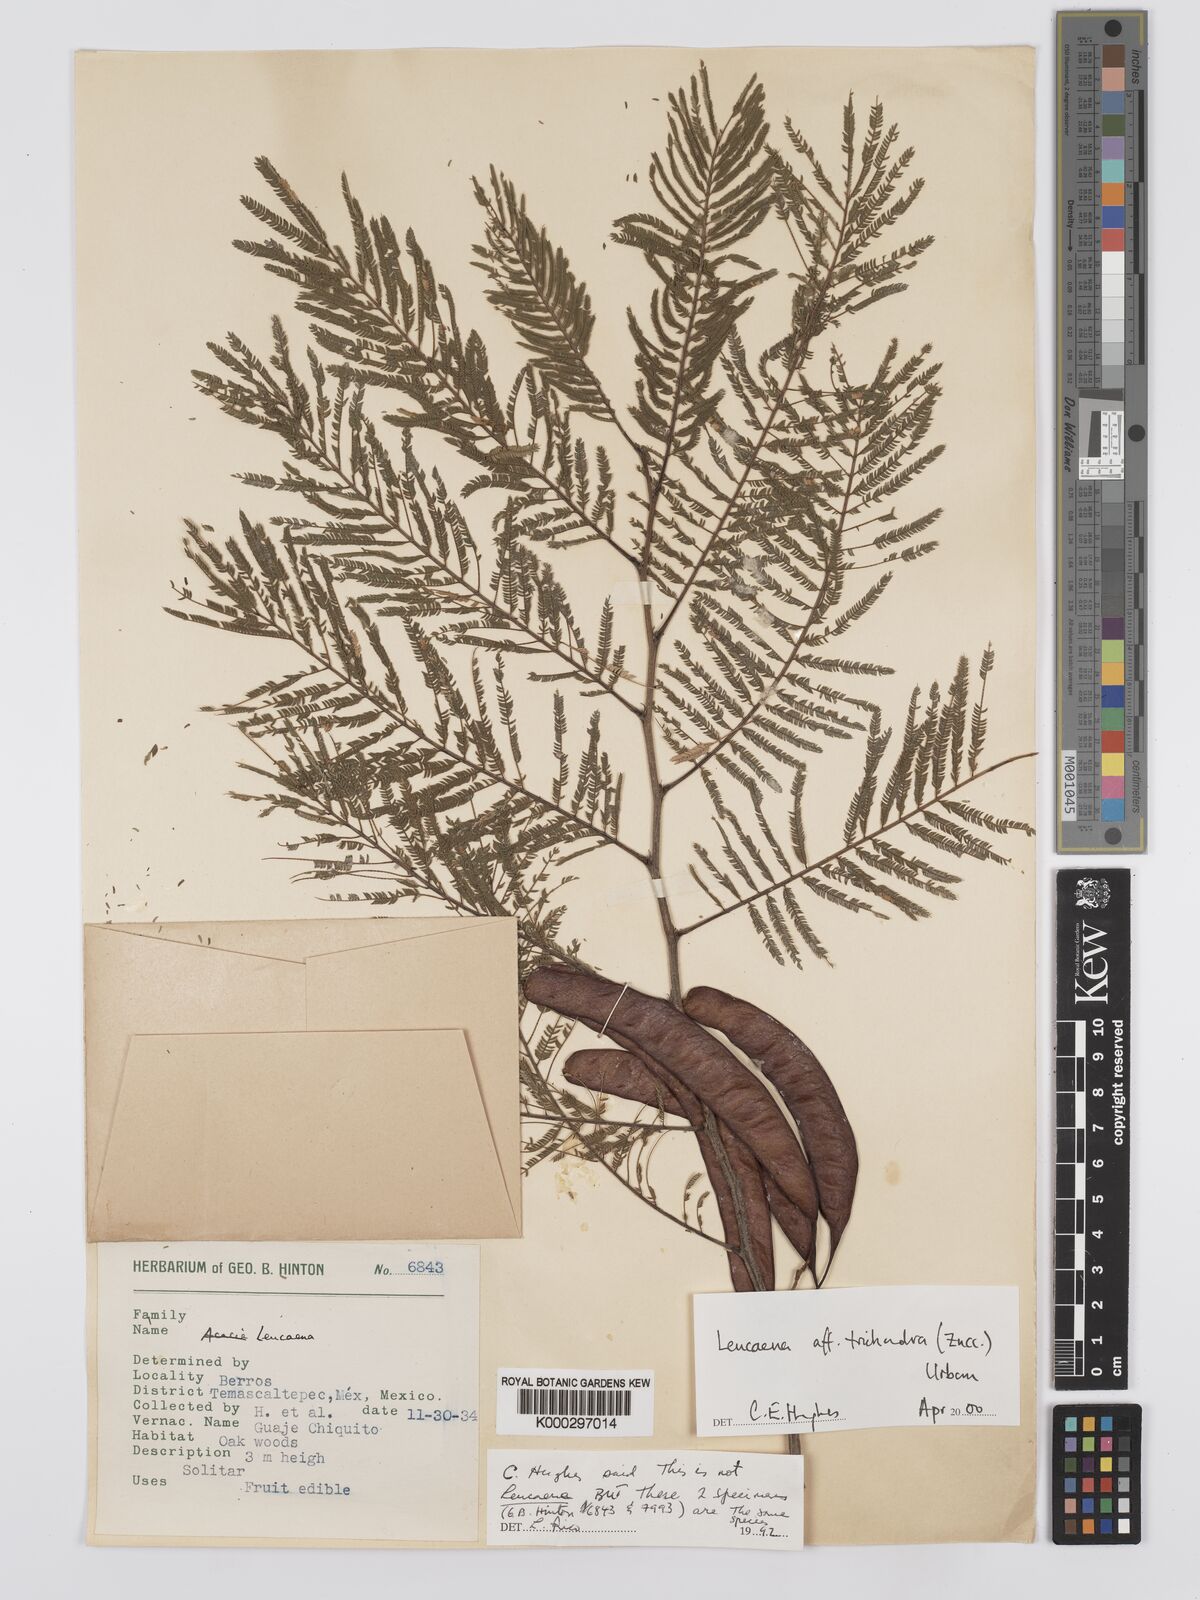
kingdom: Plantae
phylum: Tracheophyta
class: Magnoliopsida
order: Fabales
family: Fabaceae
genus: Leucaena
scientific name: Leucaena trichandra
